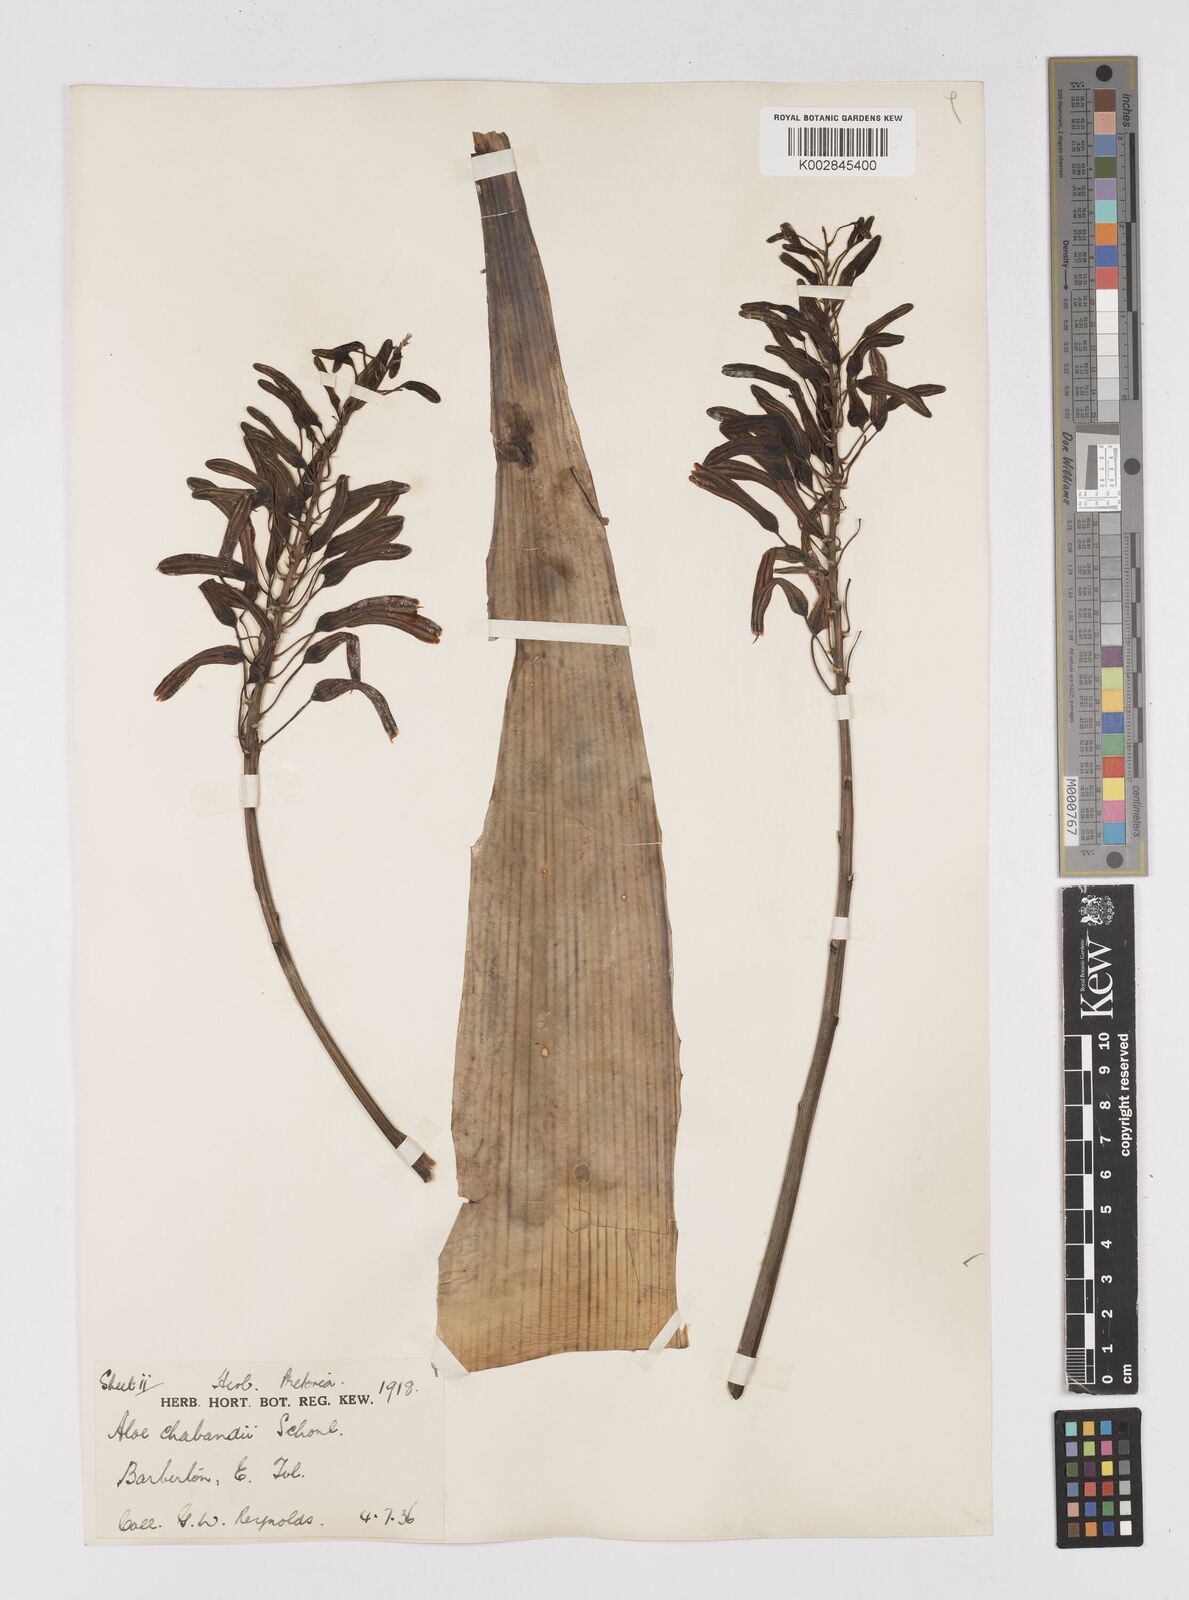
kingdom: Plantae
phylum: Tracheophyta
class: Liliopsida
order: Asparagales
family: Asphodelaceae
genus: Aloe
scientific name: Aloe chabaudii
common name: Chabaud's aloe
